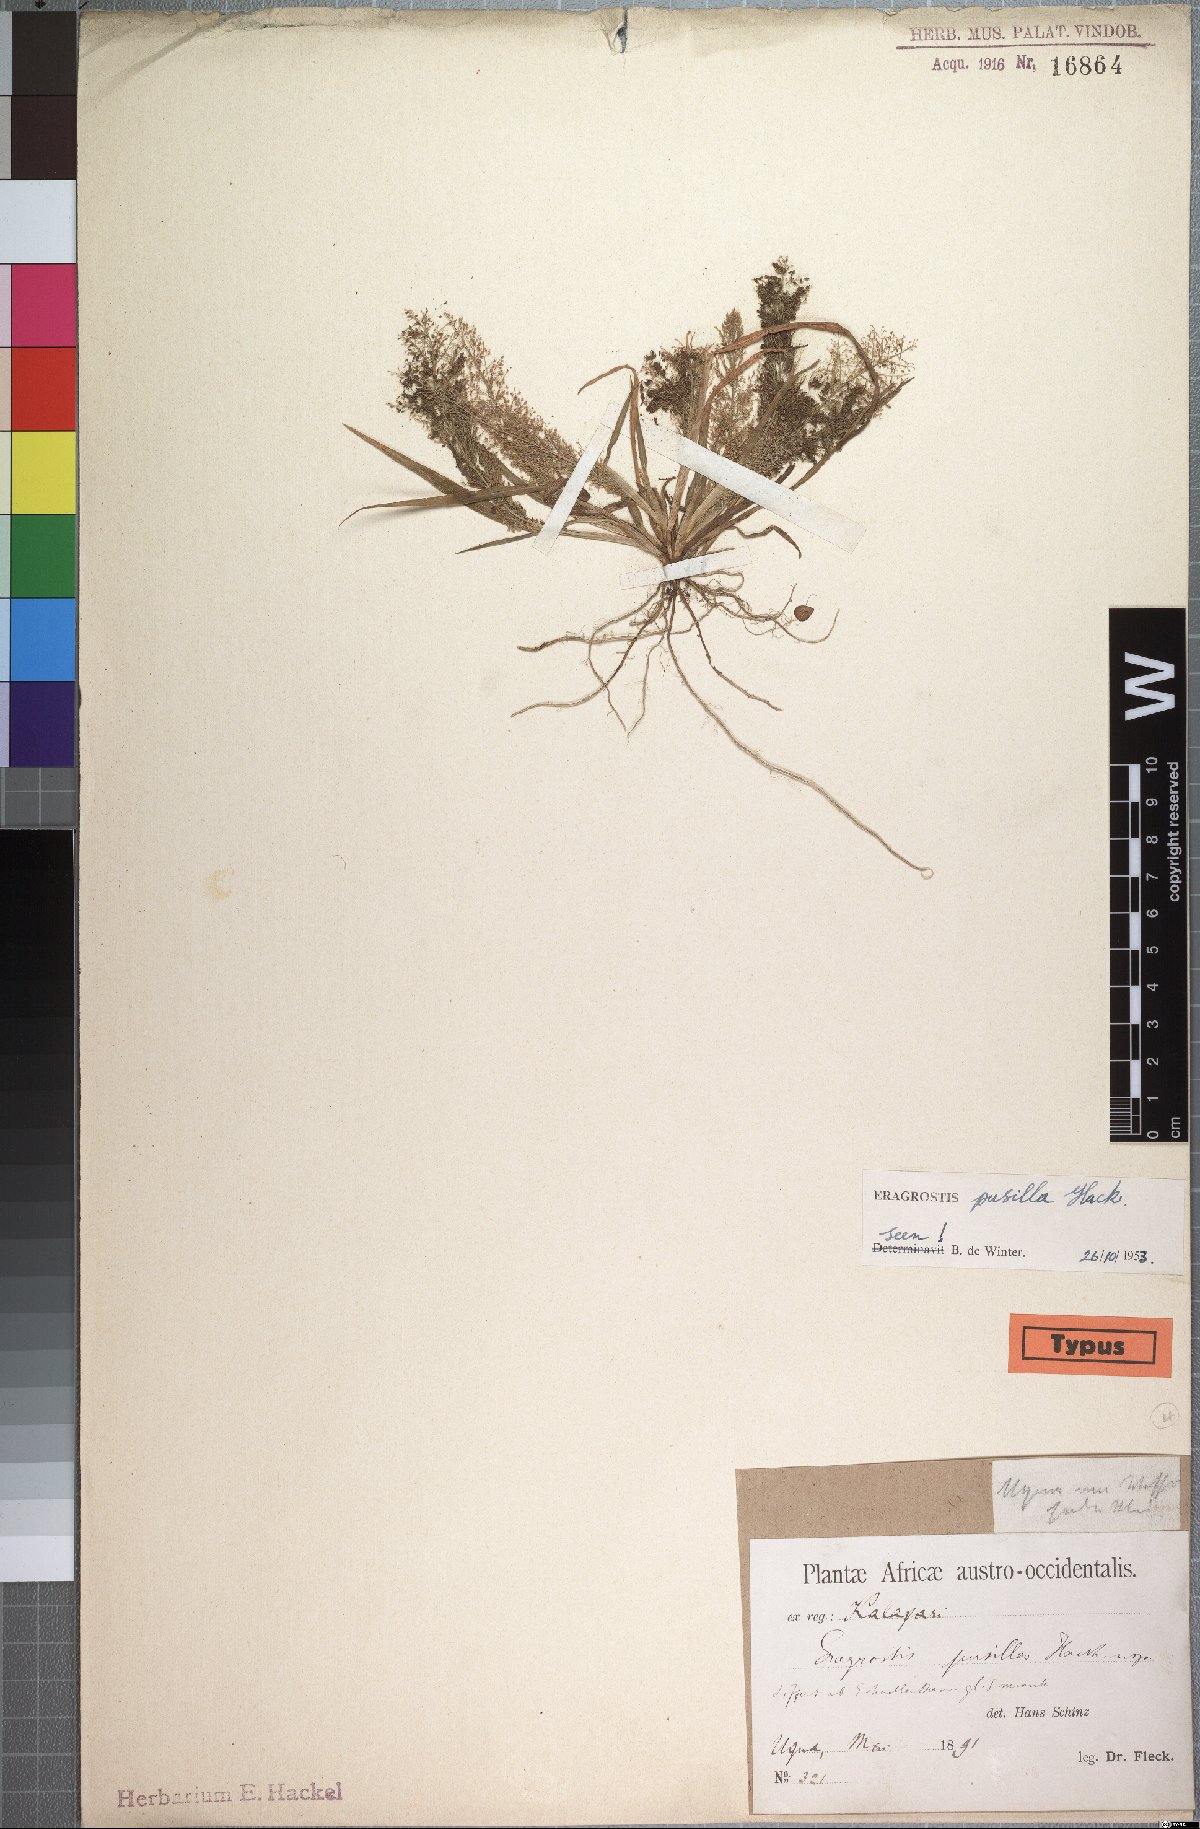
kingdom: Plantae
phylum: Tracheophyta
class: Liliopsida
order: Poales
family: Poaceae
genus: Eragrostis
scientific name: Eragrostis pusilla
